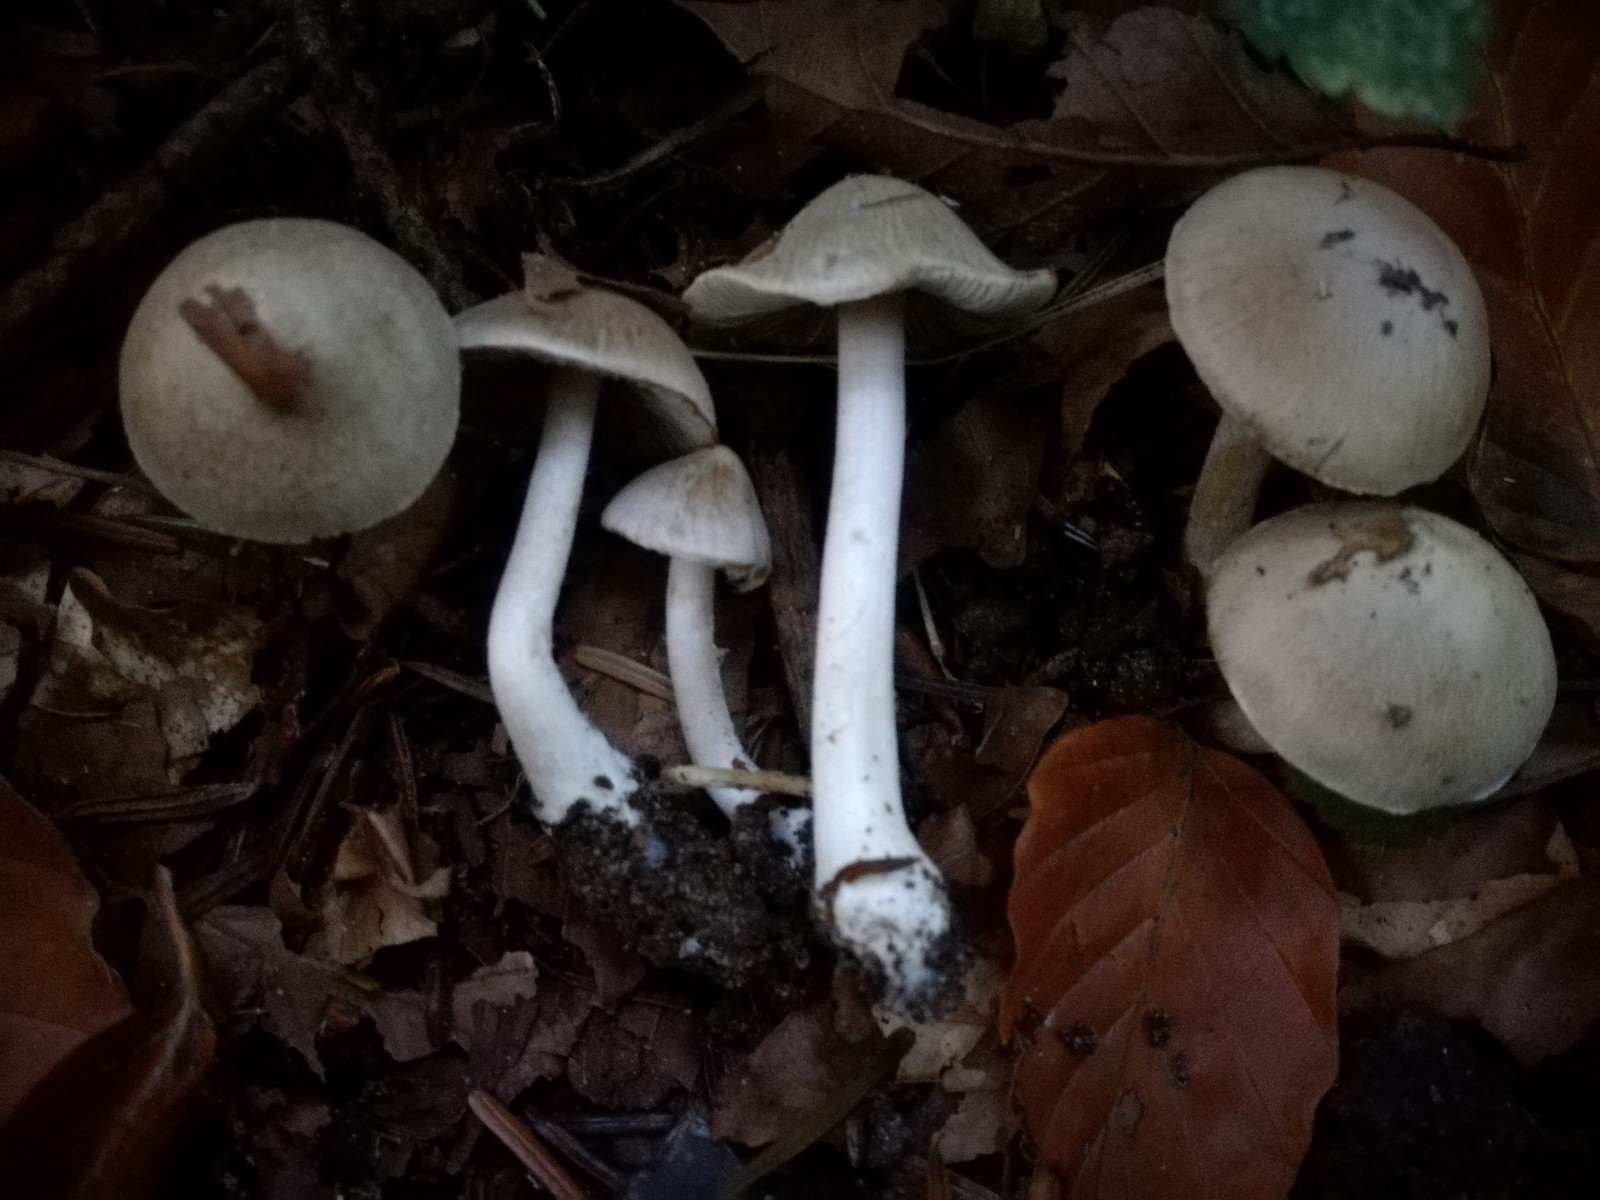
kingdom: Fungi
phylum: Basidiomycota
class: Agaricomycetes
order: Agaricales
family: Inocybaceae
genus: Inocybe
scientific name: Inocybe fuscidula
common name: brunfibret trævlhat
